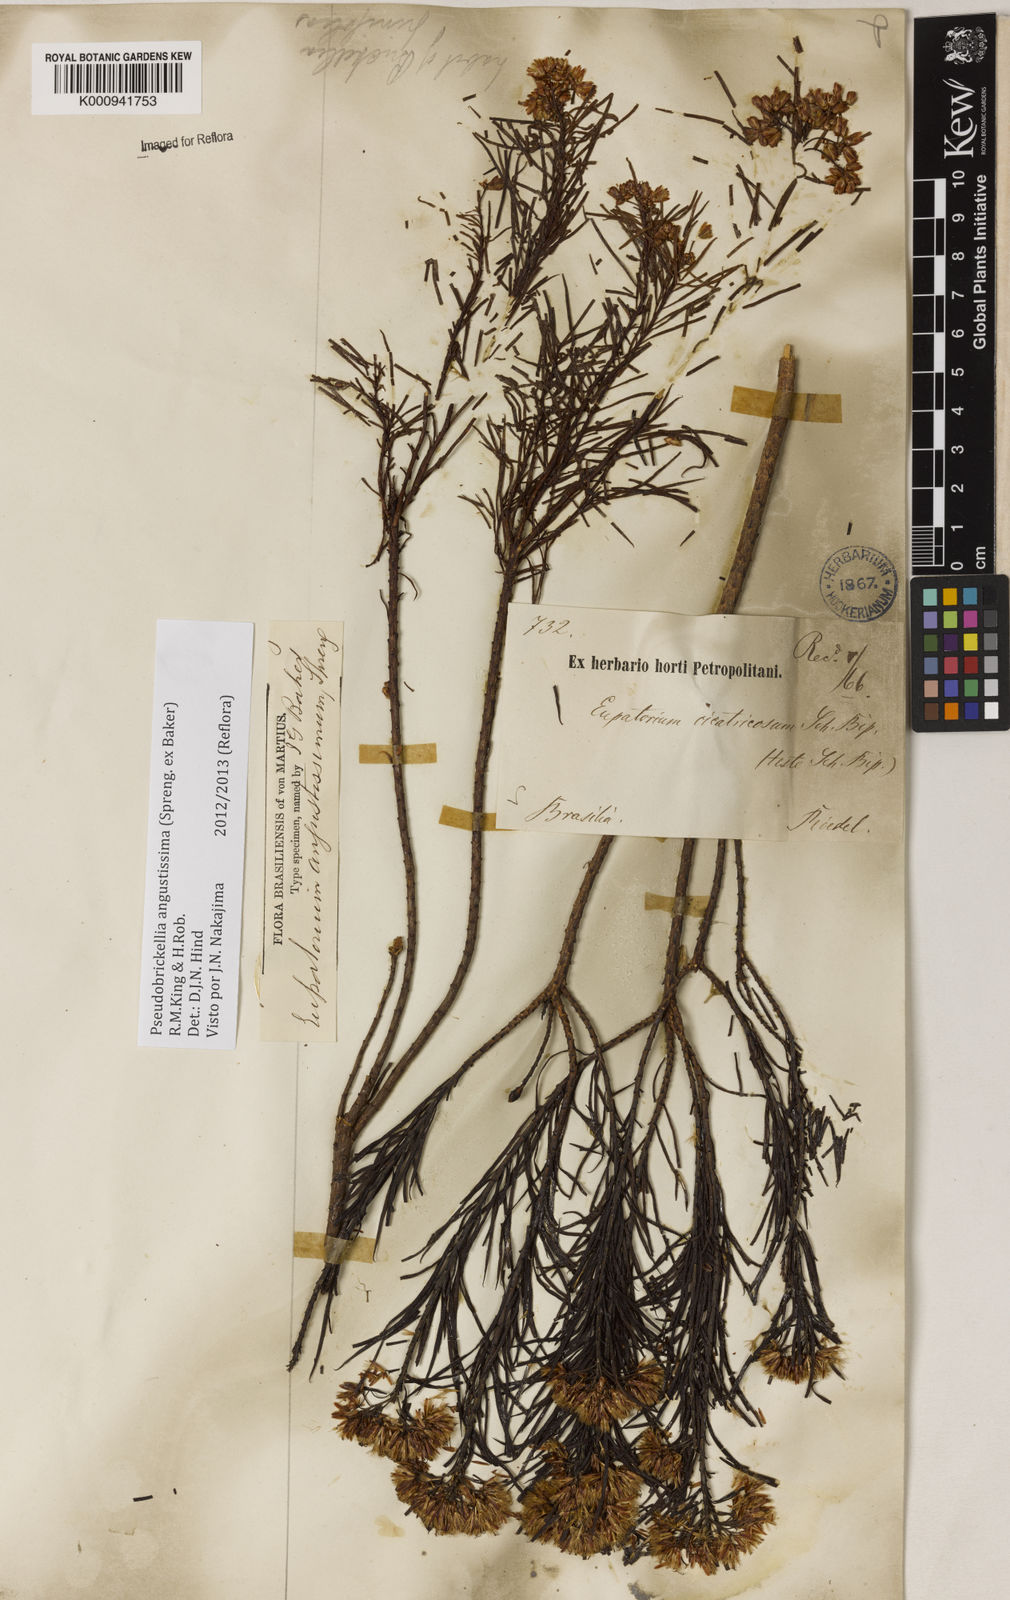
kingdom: Plantae
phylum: Tracheophyta
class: Magnoliopsida
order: Asterales
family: Asteraceae
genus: Pseudobrickellia
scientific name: Pseudobrickellia angustissima
